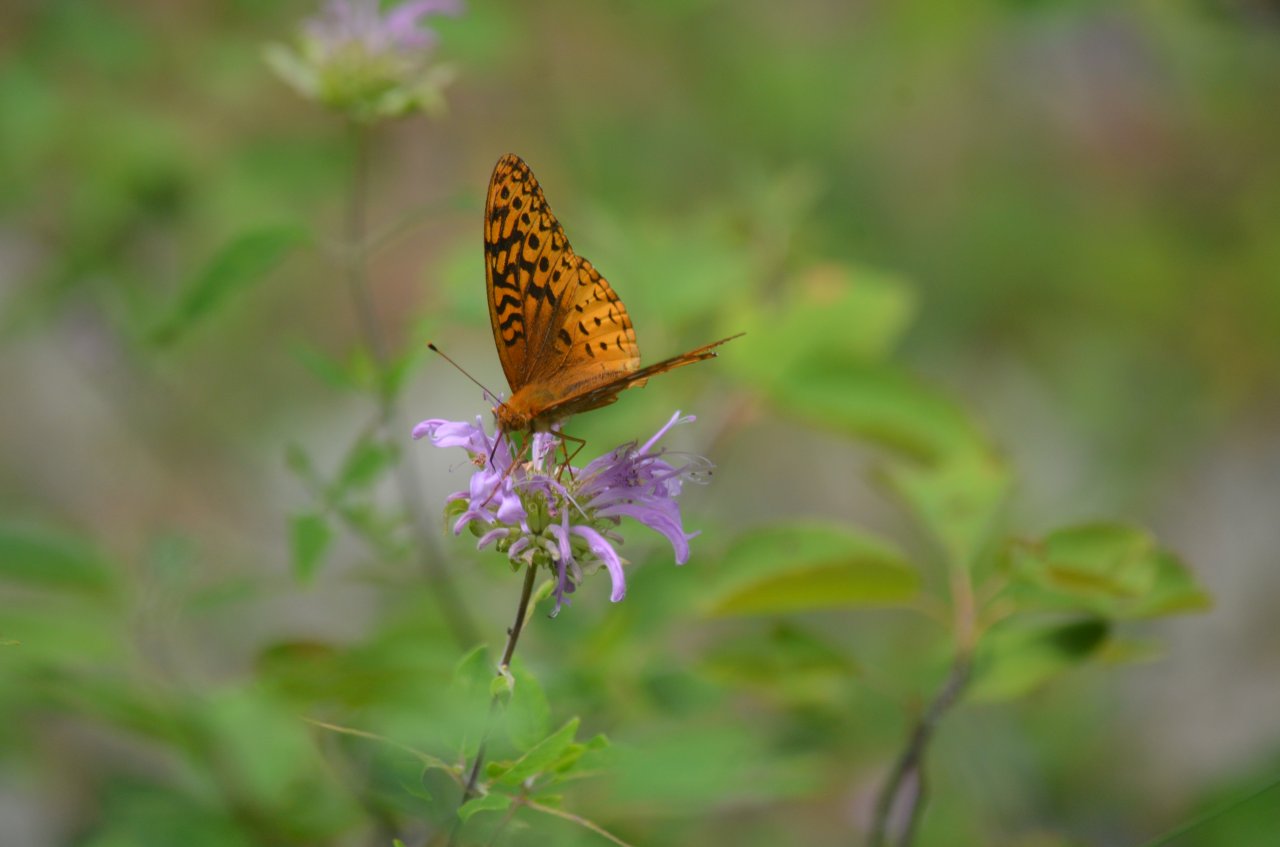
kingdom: Animalia
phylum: Arthropoda
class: Insecta
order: Lepidoptera
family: Nymphalidae
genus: Speyeria
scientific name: Speyeria cybele
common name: Great Spangled Fritillary
